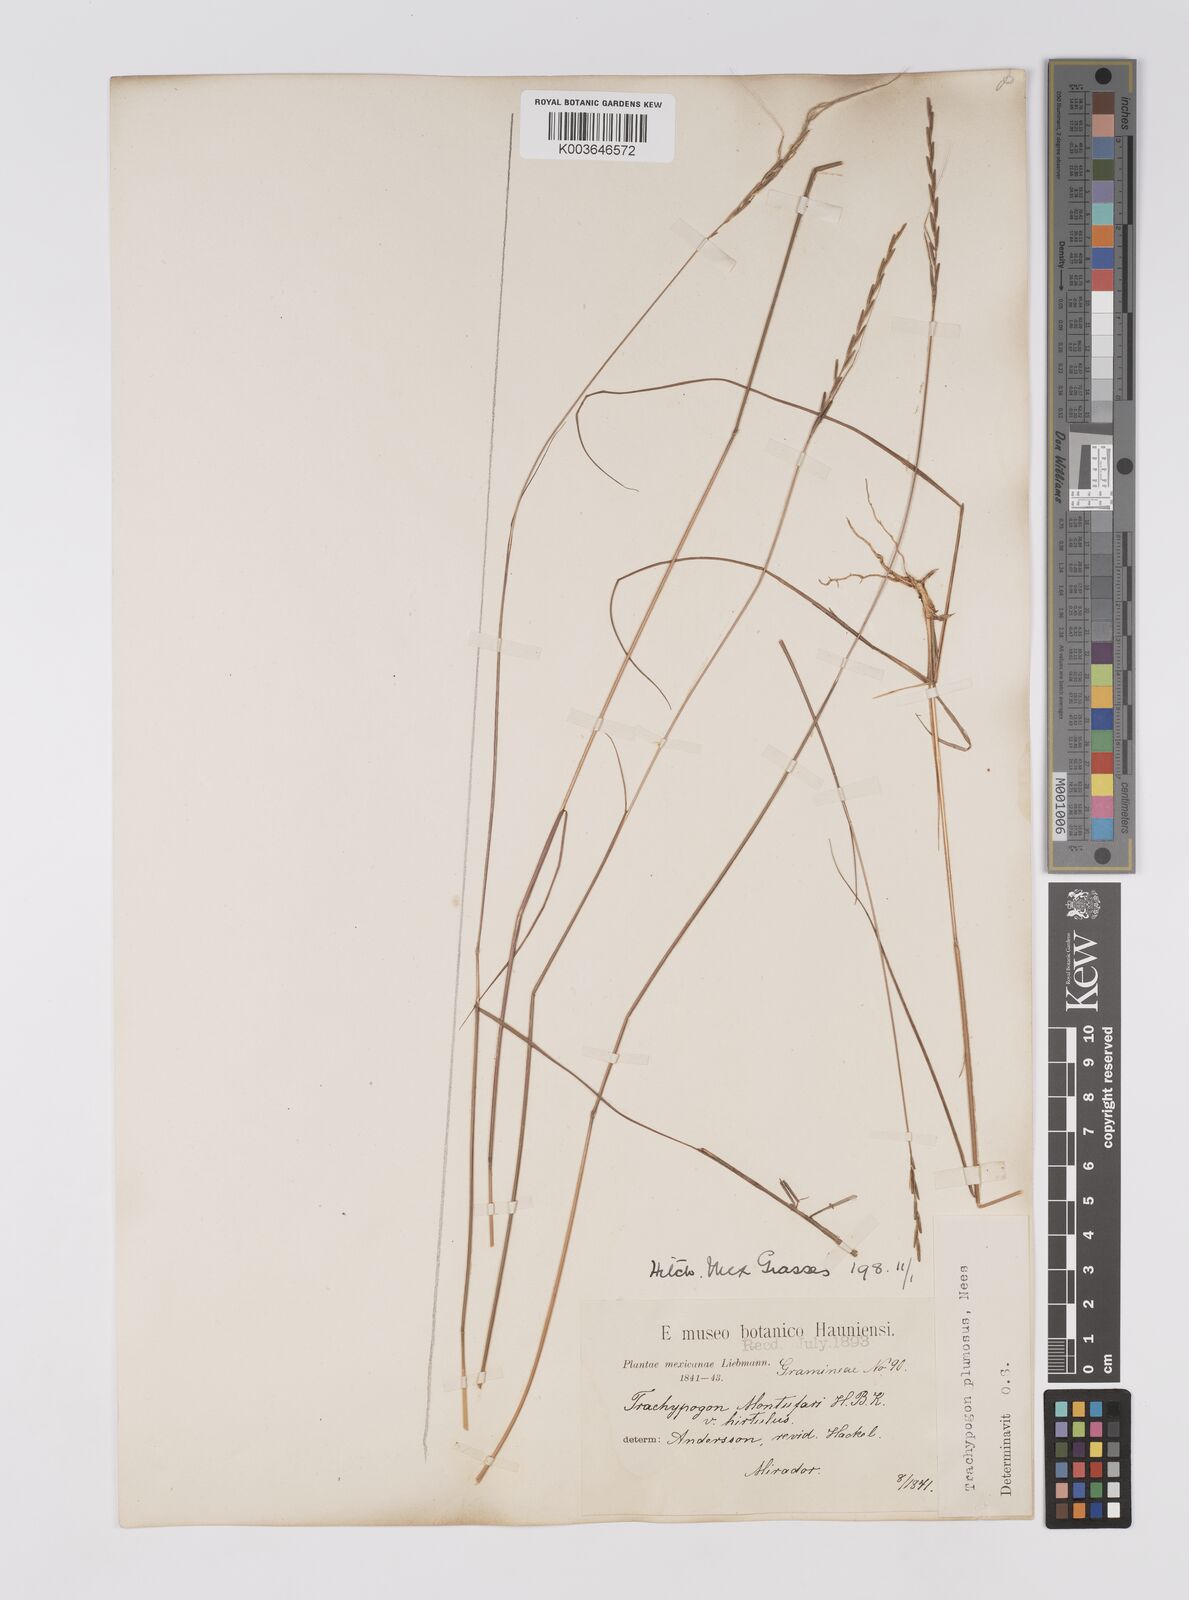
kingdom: Plantae
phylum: Tracheophyta
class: Liliopsida
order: Poales
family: Poaceae
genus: Trachypogon
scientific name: Trachypogon spicatus
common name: Crinkle-awn
